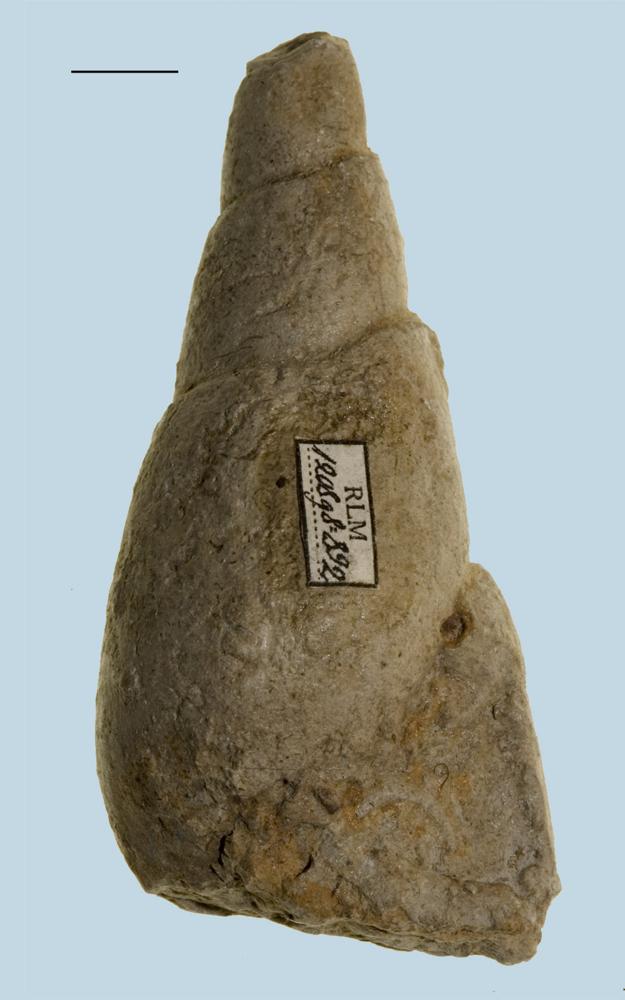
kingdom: Animalia
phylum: Mollusca
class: Gastropoda
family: Subulitidae
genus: Subulites
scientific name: Subulites Phasianella gigas
